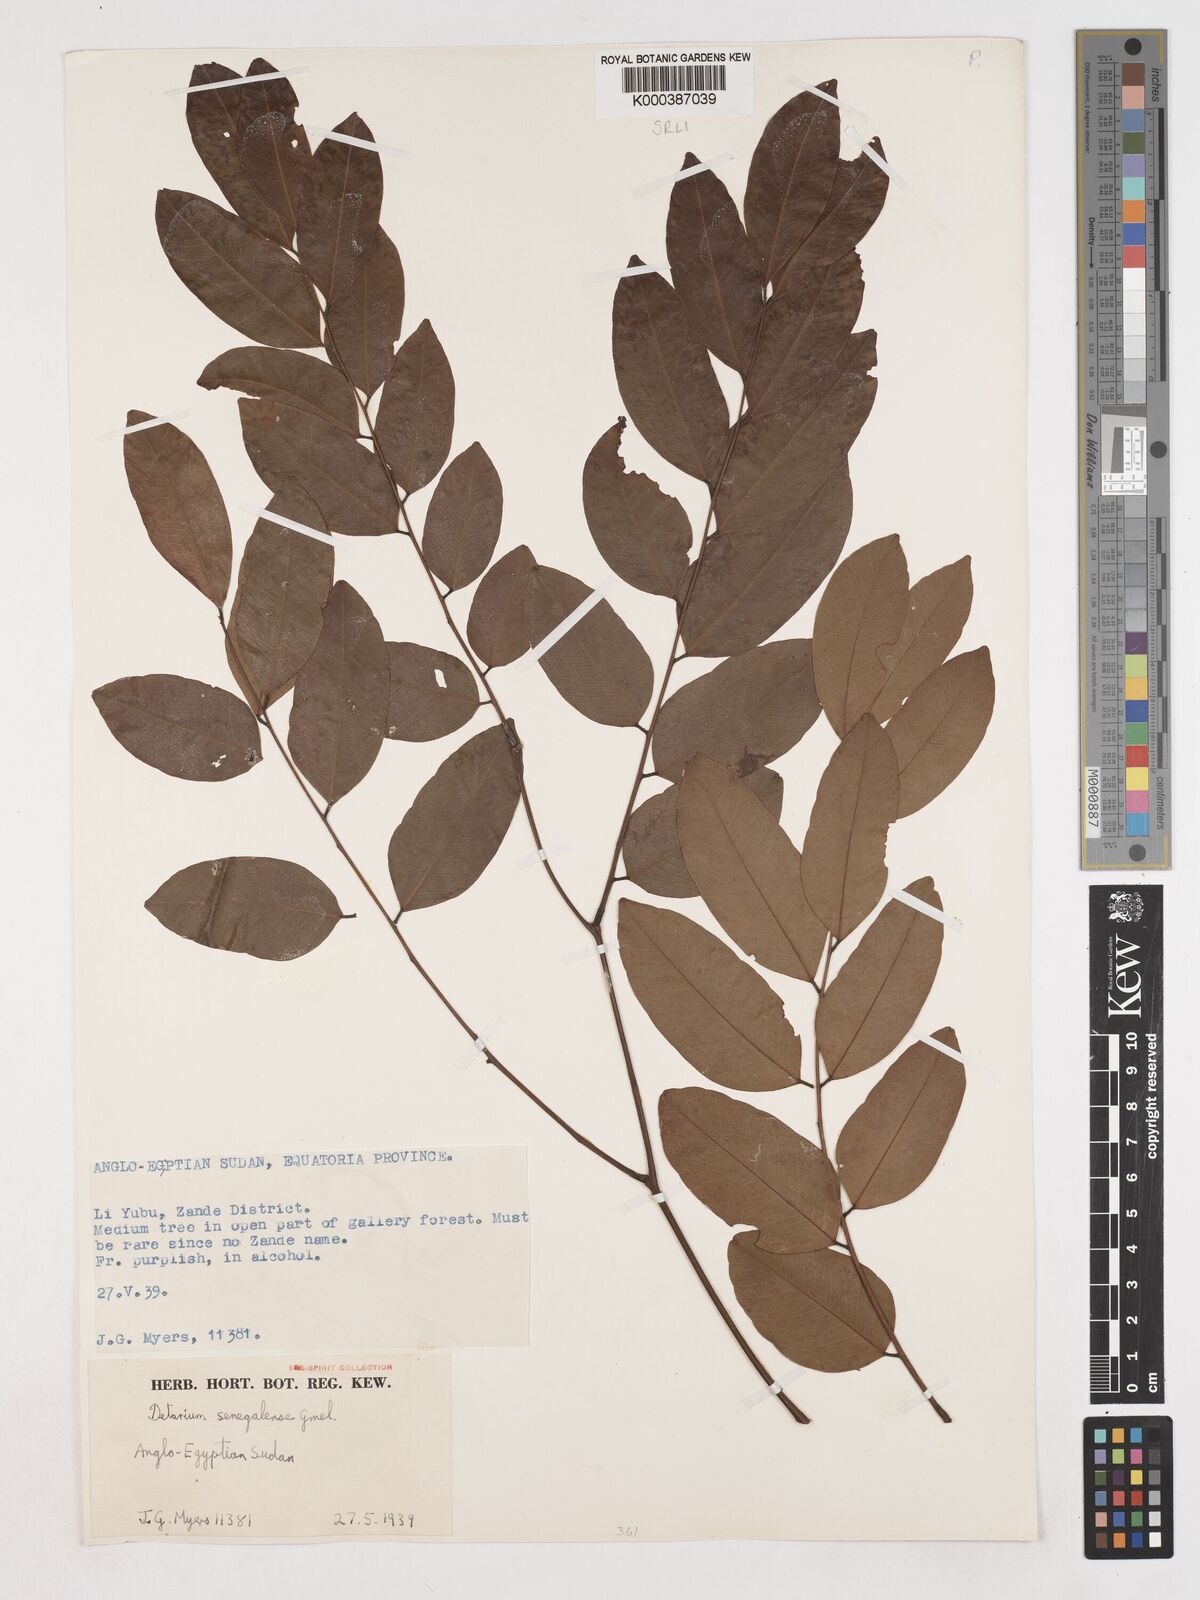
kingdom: Plantae
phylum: Tracheophyta
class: Magnoliopsida
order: Fabales
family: Fabaceae
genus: Detarium
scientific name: Detarium microcarpum
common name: Sweet dattock
